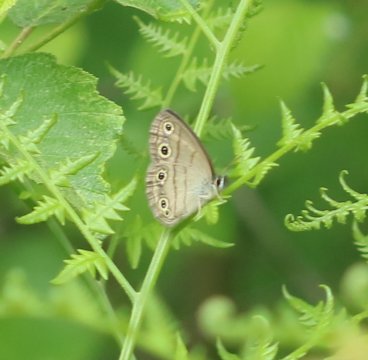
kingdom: Animalia
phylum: Arthropoda
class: Insecta
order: Lepidoptera
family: Nymphalidae
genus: Euptychia
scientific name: Euptychia cymela
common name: Little Wood Satyr
